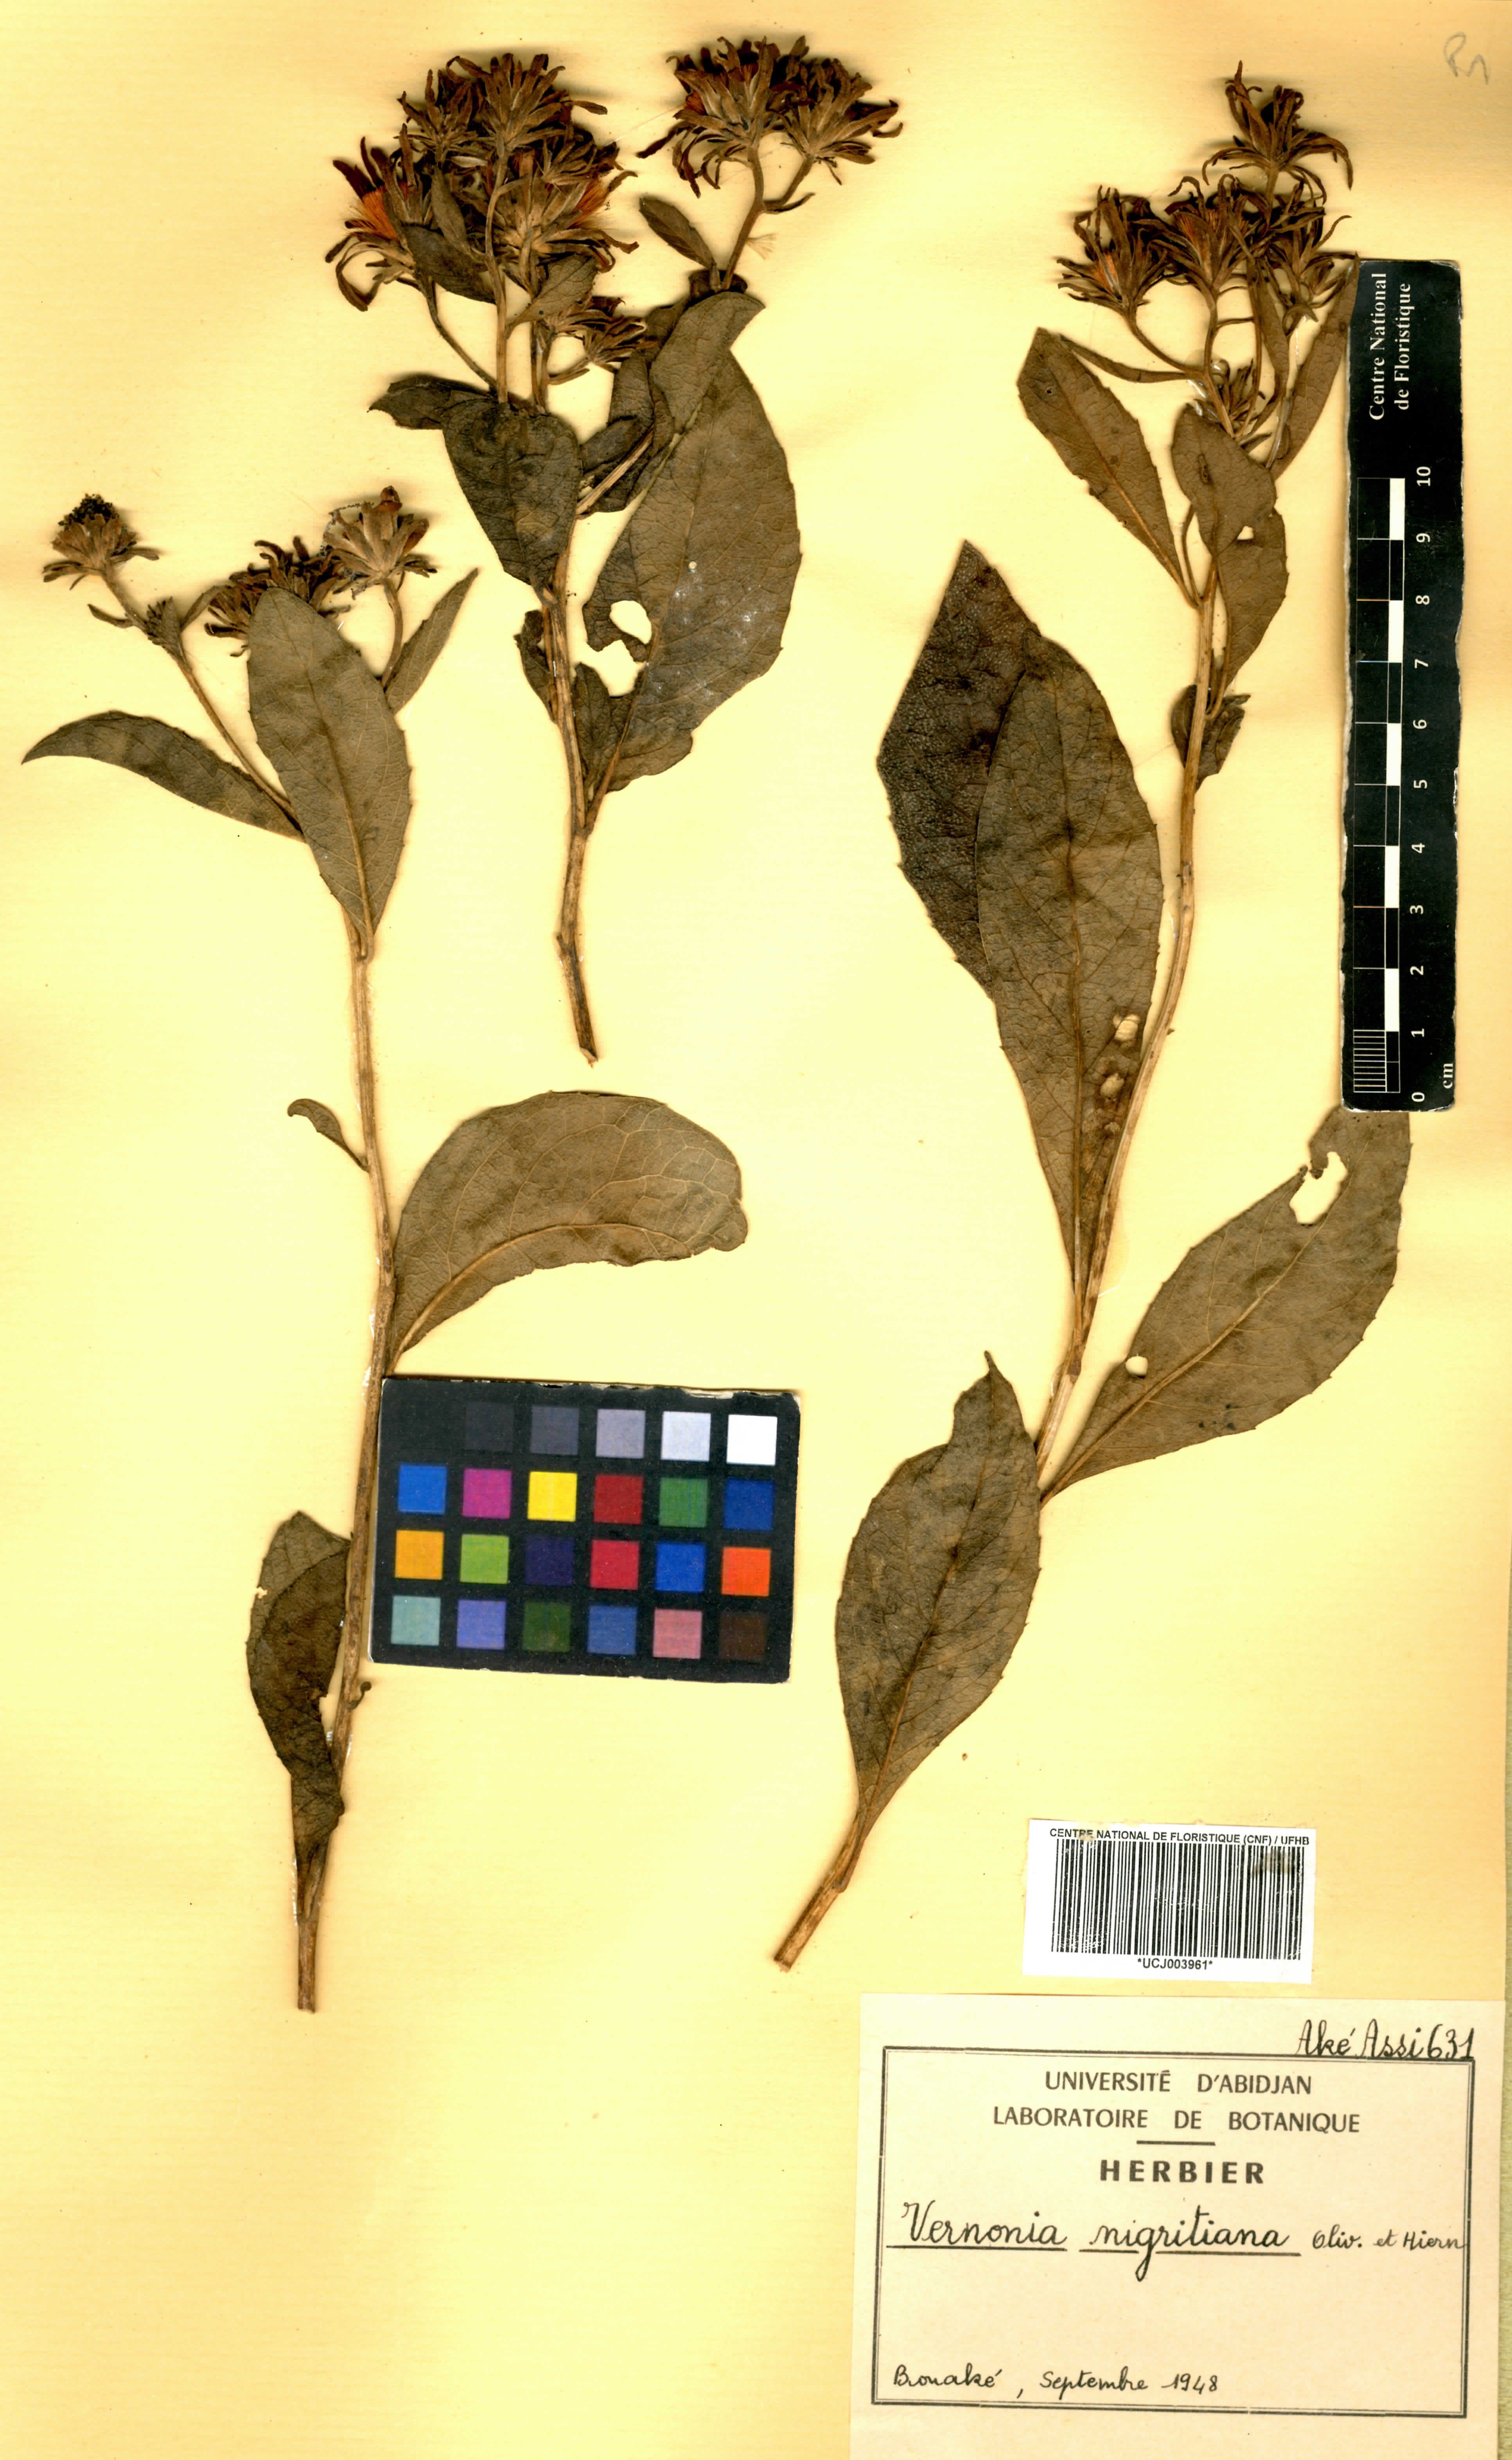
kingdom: Plantae
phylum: Tracheophyta
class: Magnoliopsida
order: Asterales
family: Asteraceae
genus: Linzia
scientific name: Linzia nigritiana
